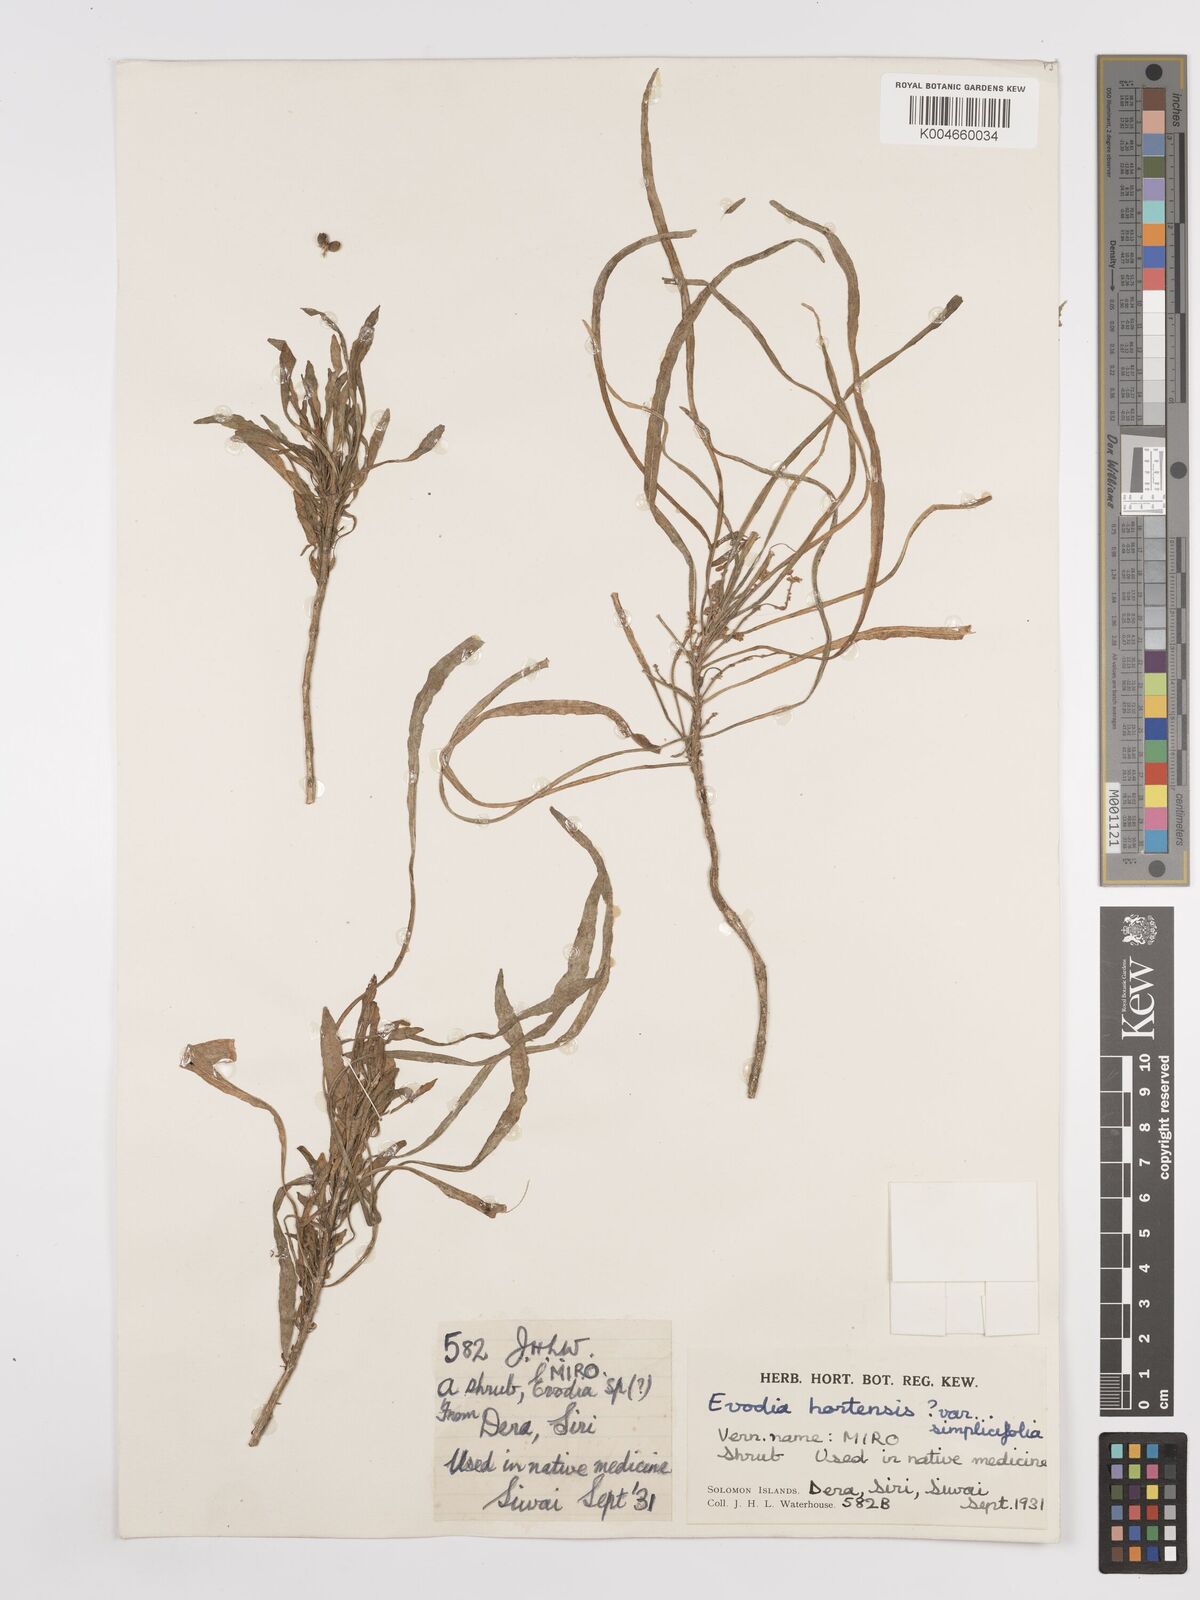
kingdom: Plantae
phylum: Tracheophyta
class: Magnoliopsida
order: Sapindales
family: Rutaceae
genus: Euodia
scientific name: Euodia hortensis
